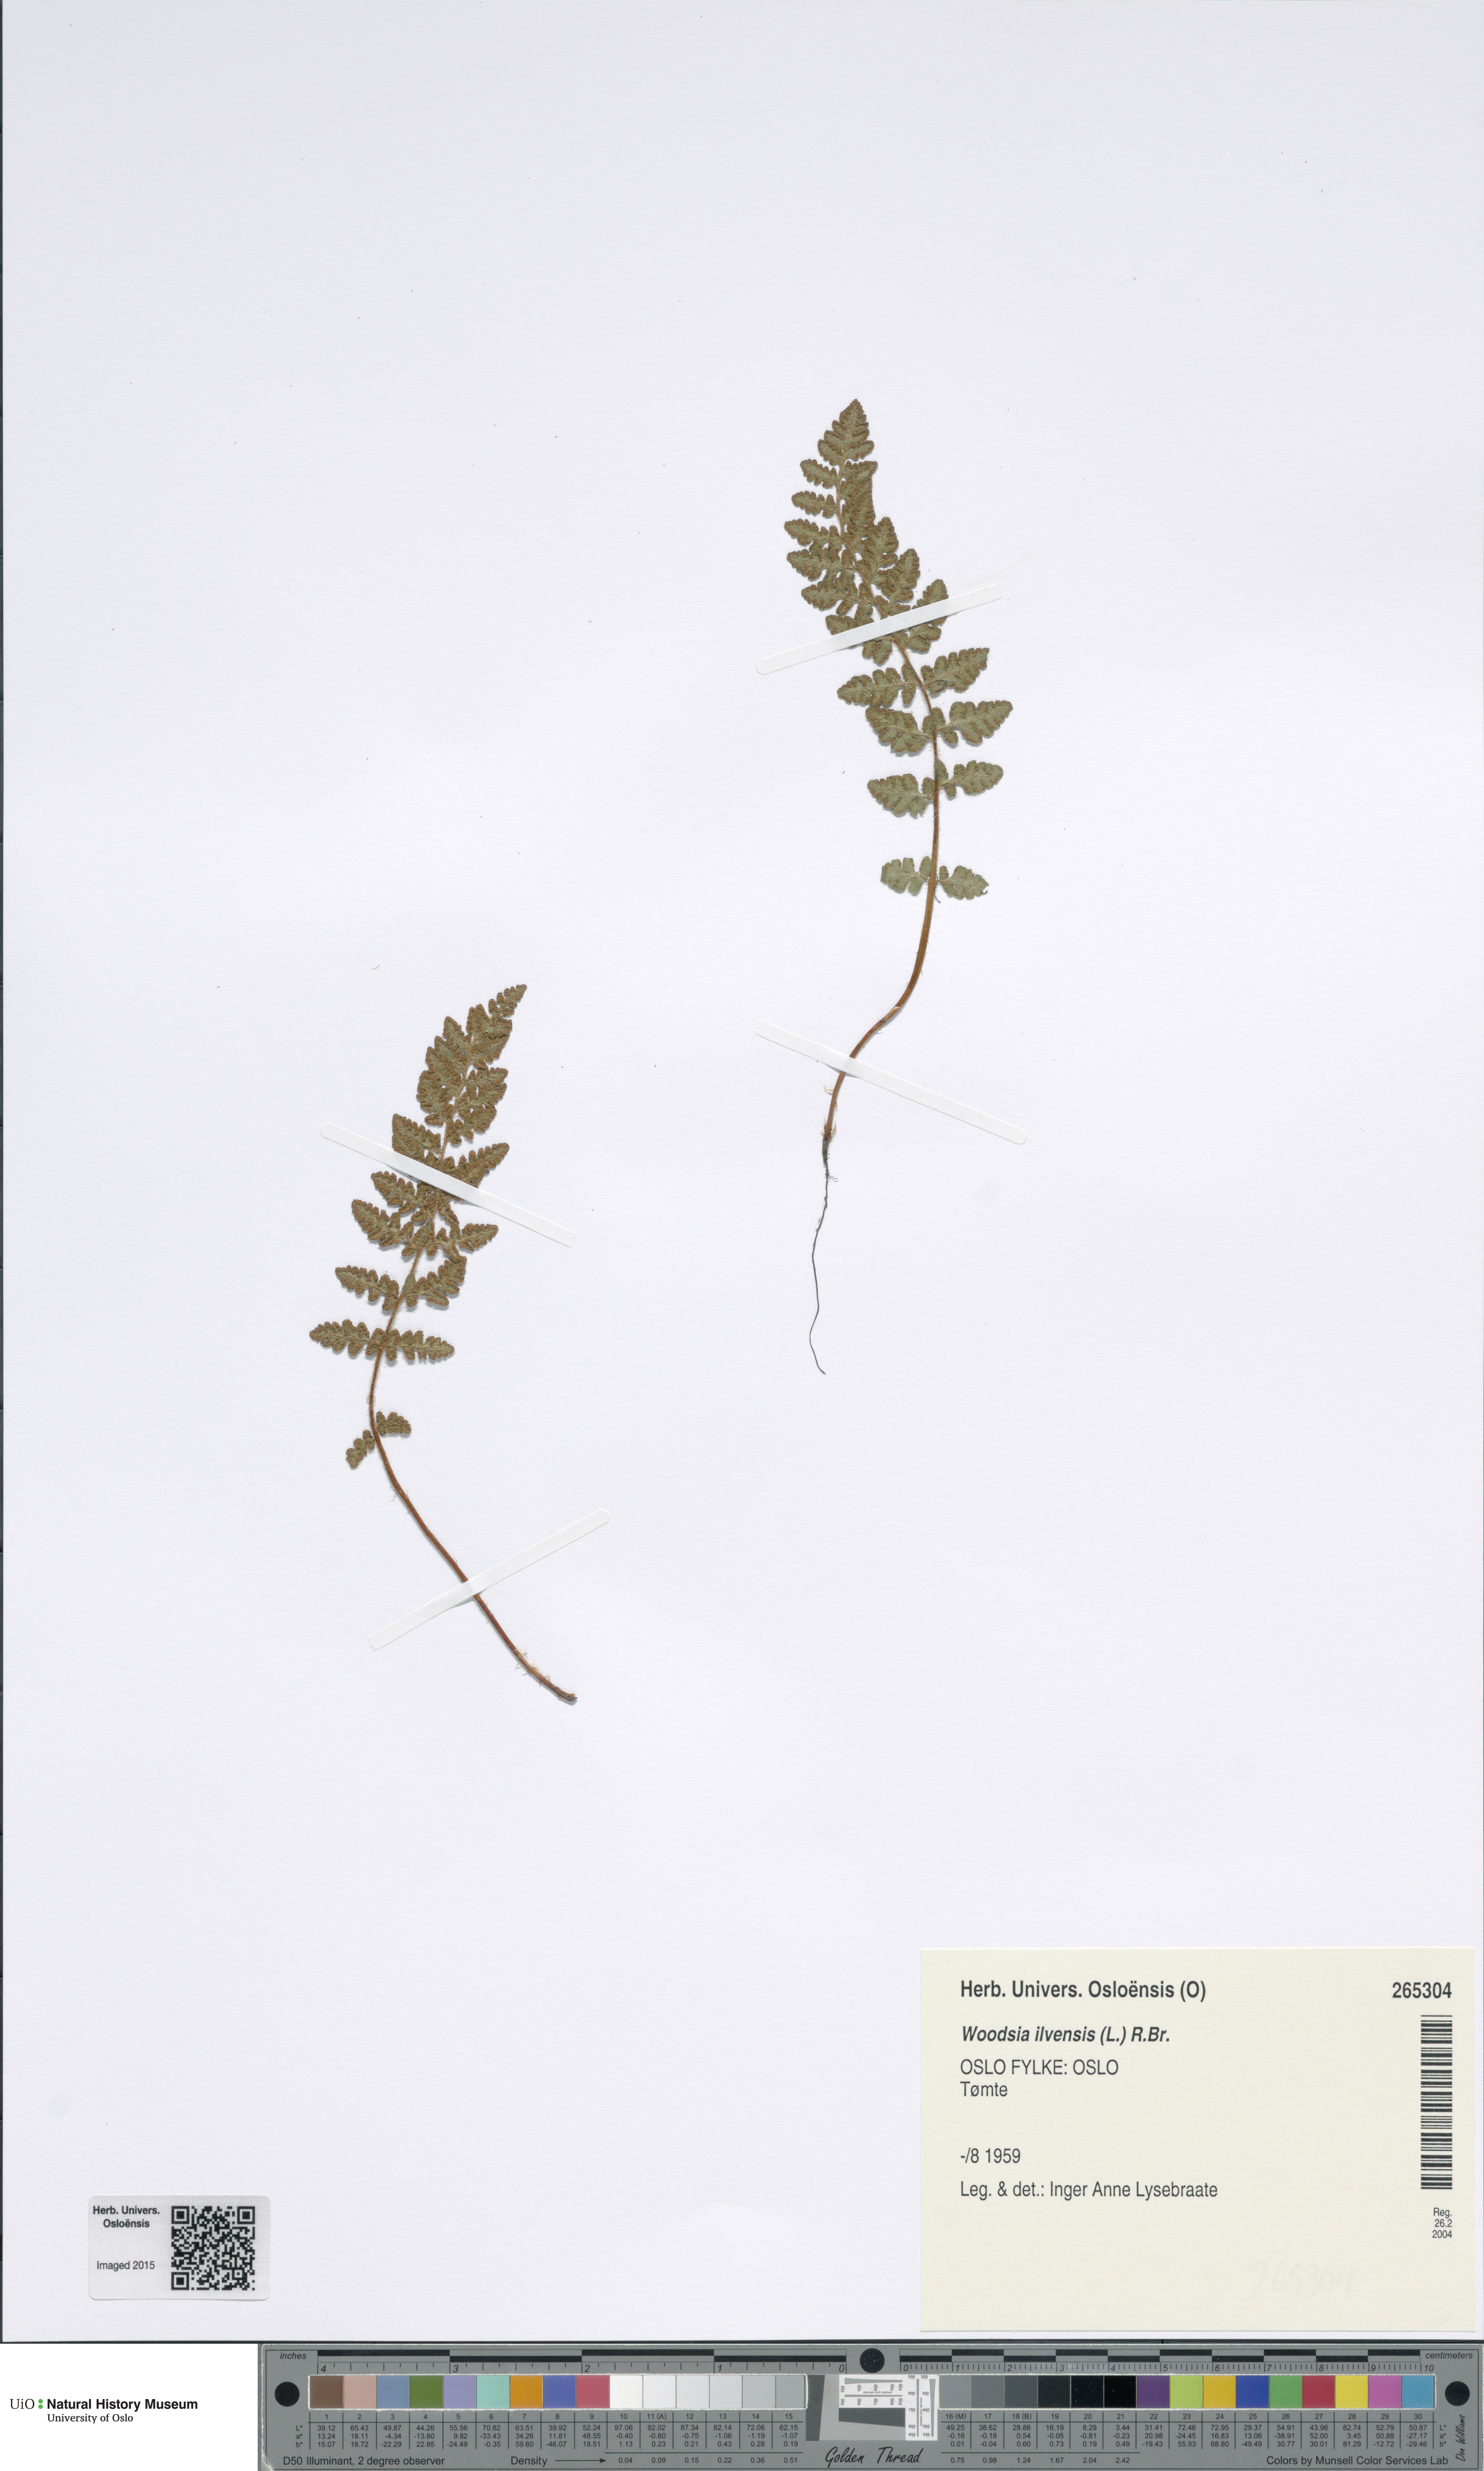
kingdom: Plantae
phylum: Tracheophyta
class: Polypodiopsida
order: Polypodiales
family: Woodsiaceae
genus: Woodsia
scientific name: Woodsia ilvensis
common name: Fragrant woodsia
